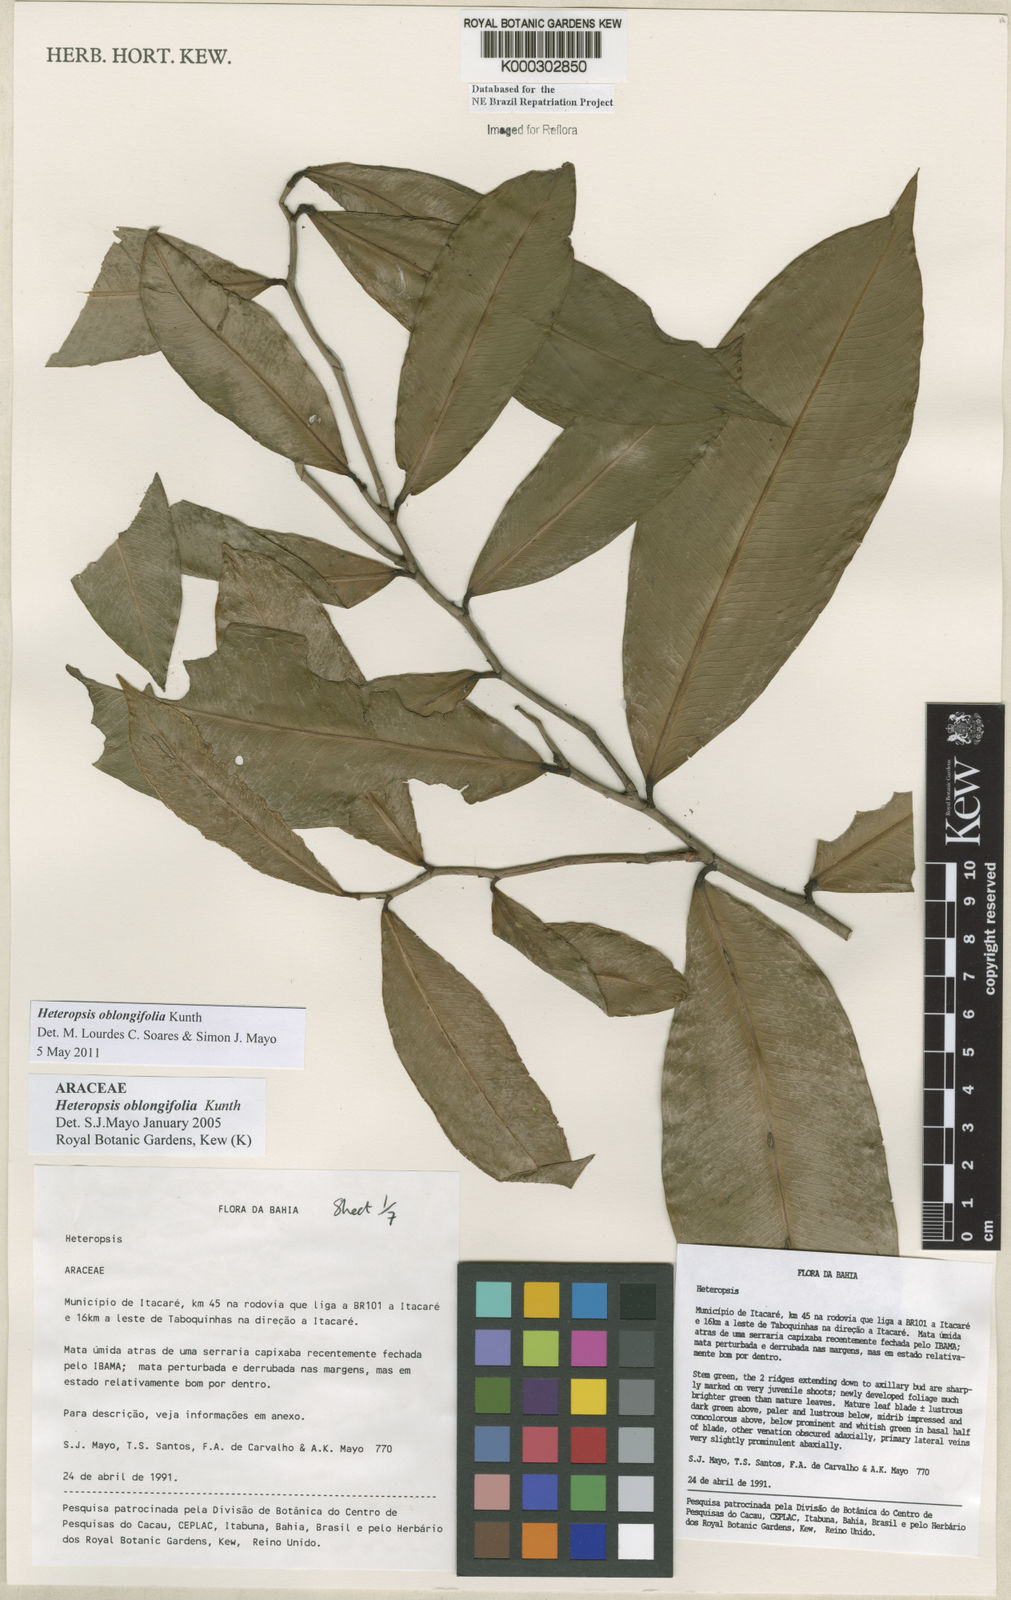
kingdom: Plantae
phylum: Tracheophyta
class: Liliopsida
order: Alismatales
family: Araceae
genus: Heteropsis
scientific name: Heteropsis oblongifolia
